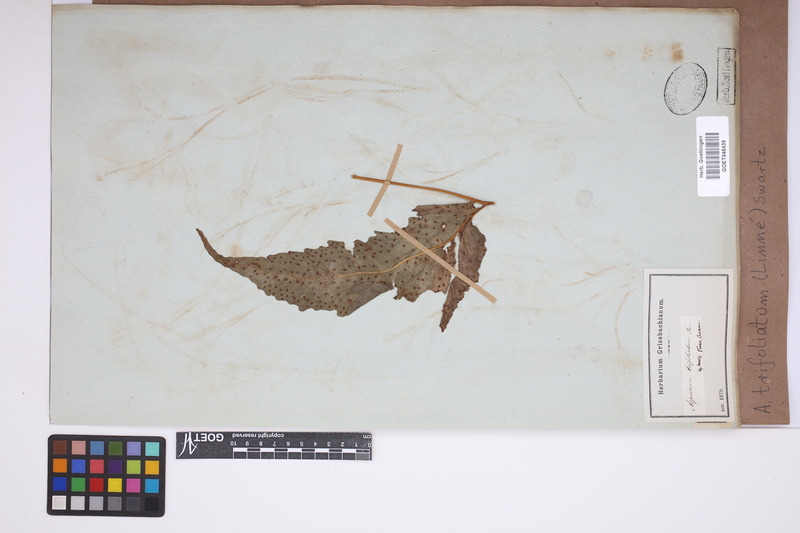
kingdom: Plantae
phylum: Tracheophyta
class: Polypodiopsida
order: Polypodiales
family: Tectariaceae
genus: Tectaria
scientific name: Tectaria trifoliata
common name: Threeleaf halberd fern
